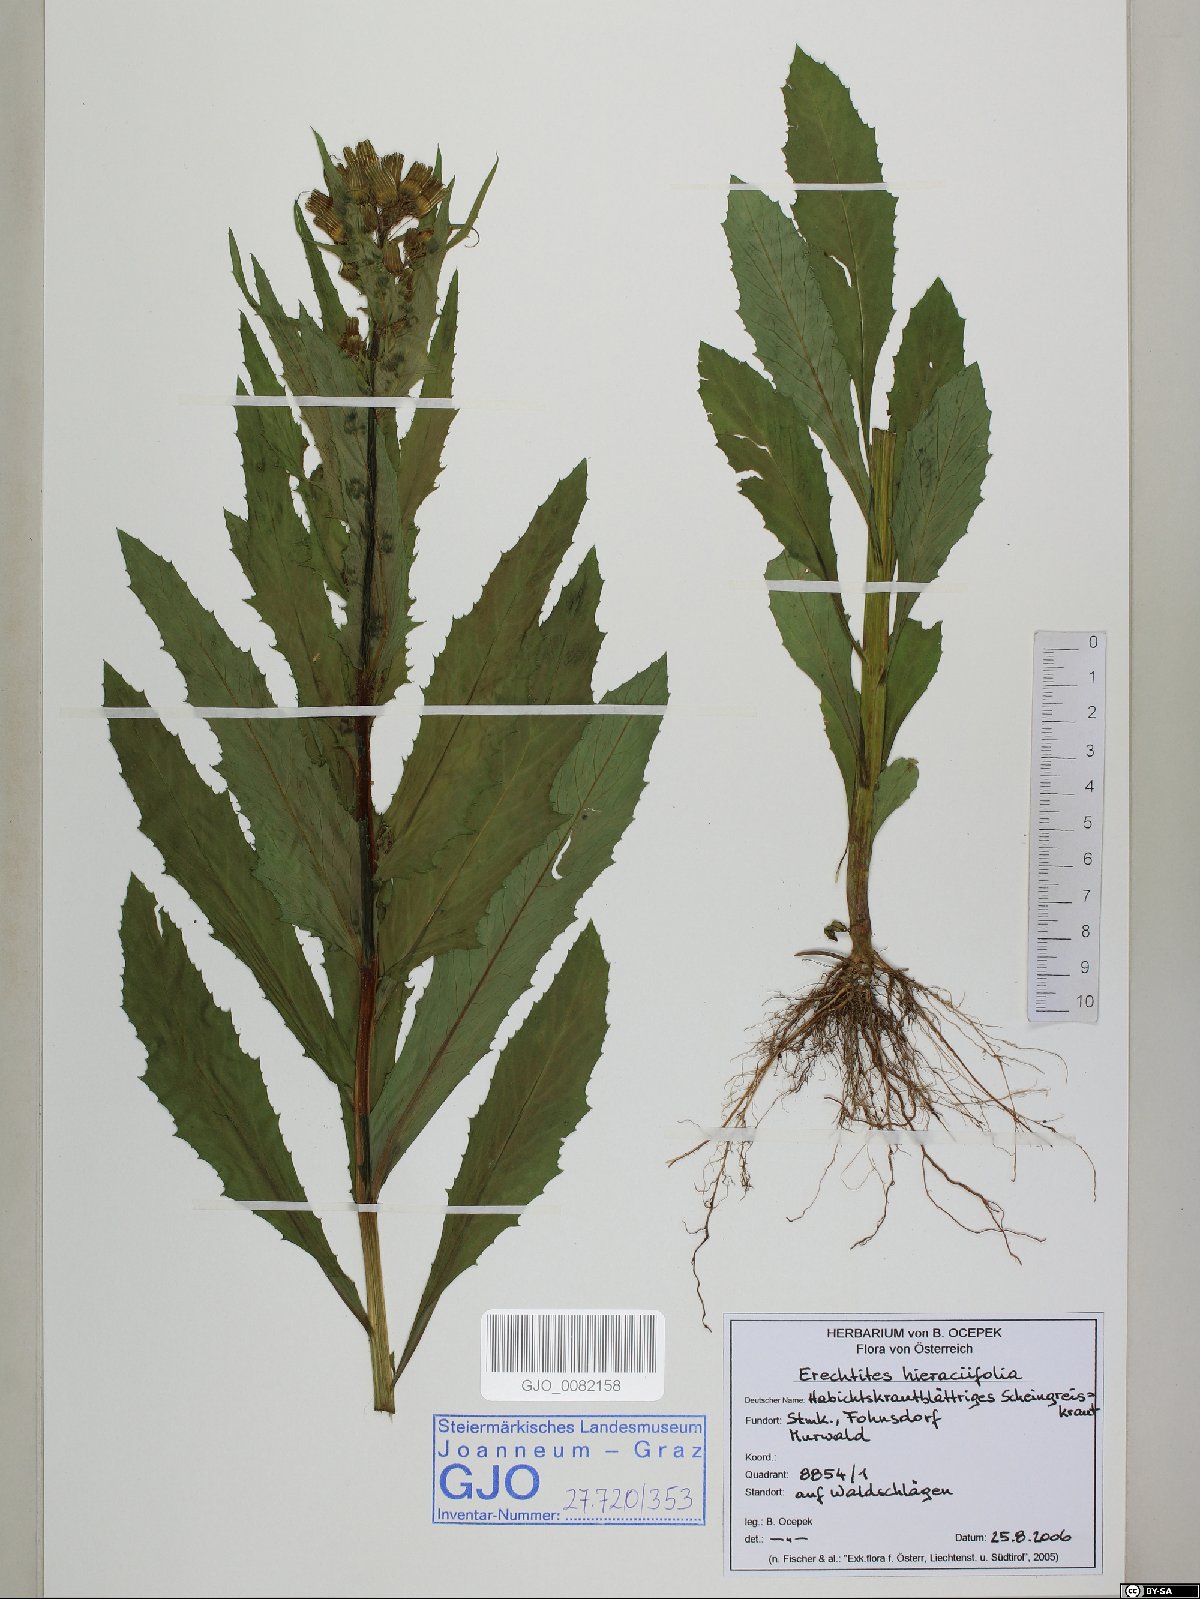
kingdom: Plantae
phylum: Tracheophyta
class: Magnoliopsida
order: Asterales
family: Asteraceae
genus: Erechtites
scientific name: Erechtites hieraciifolius
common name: American burnweed
